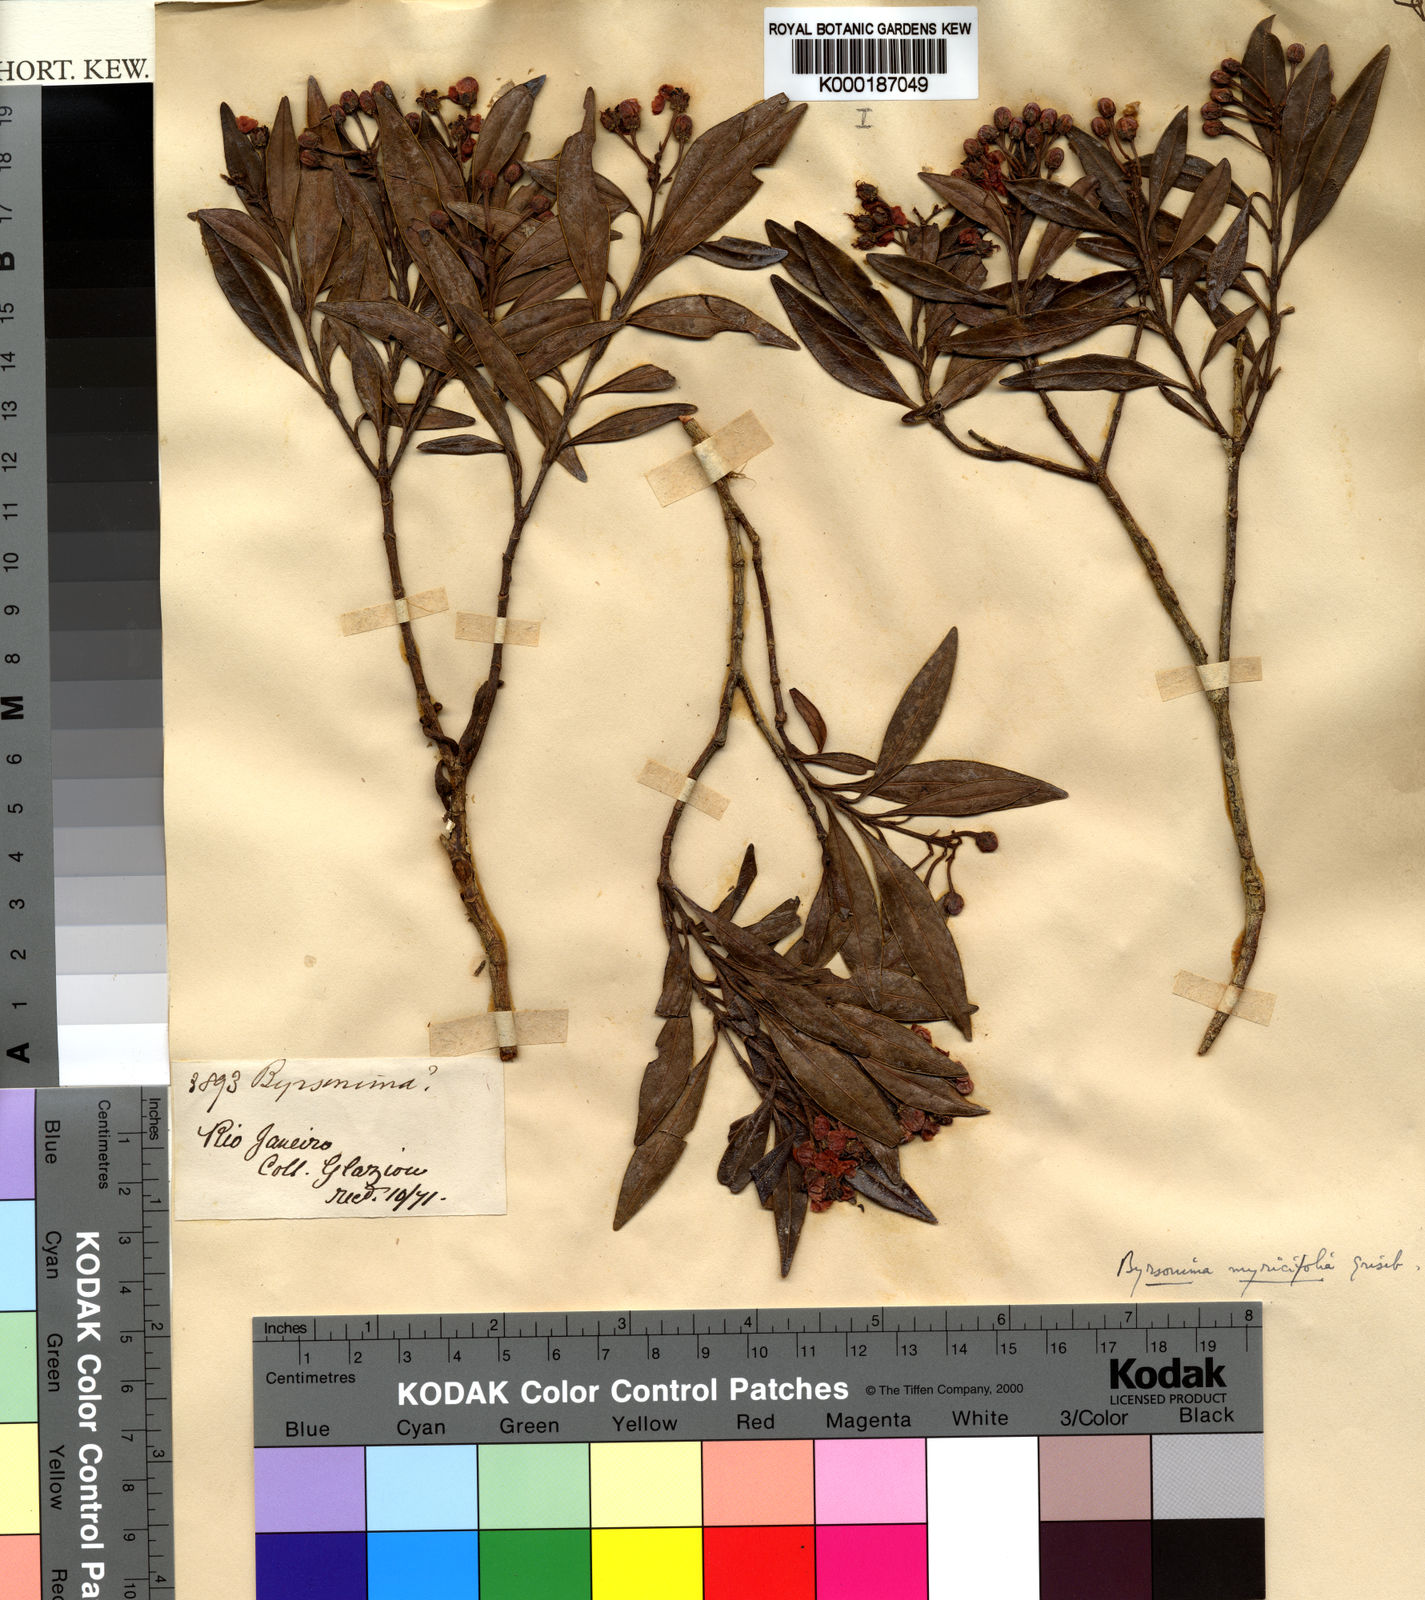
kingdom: Plantae
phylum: Tracheophyta
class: Magnoliopsida
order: Malpighiales
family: Malpighiaceae
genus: Byrsonima
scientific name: Byrsonima myricifolia
